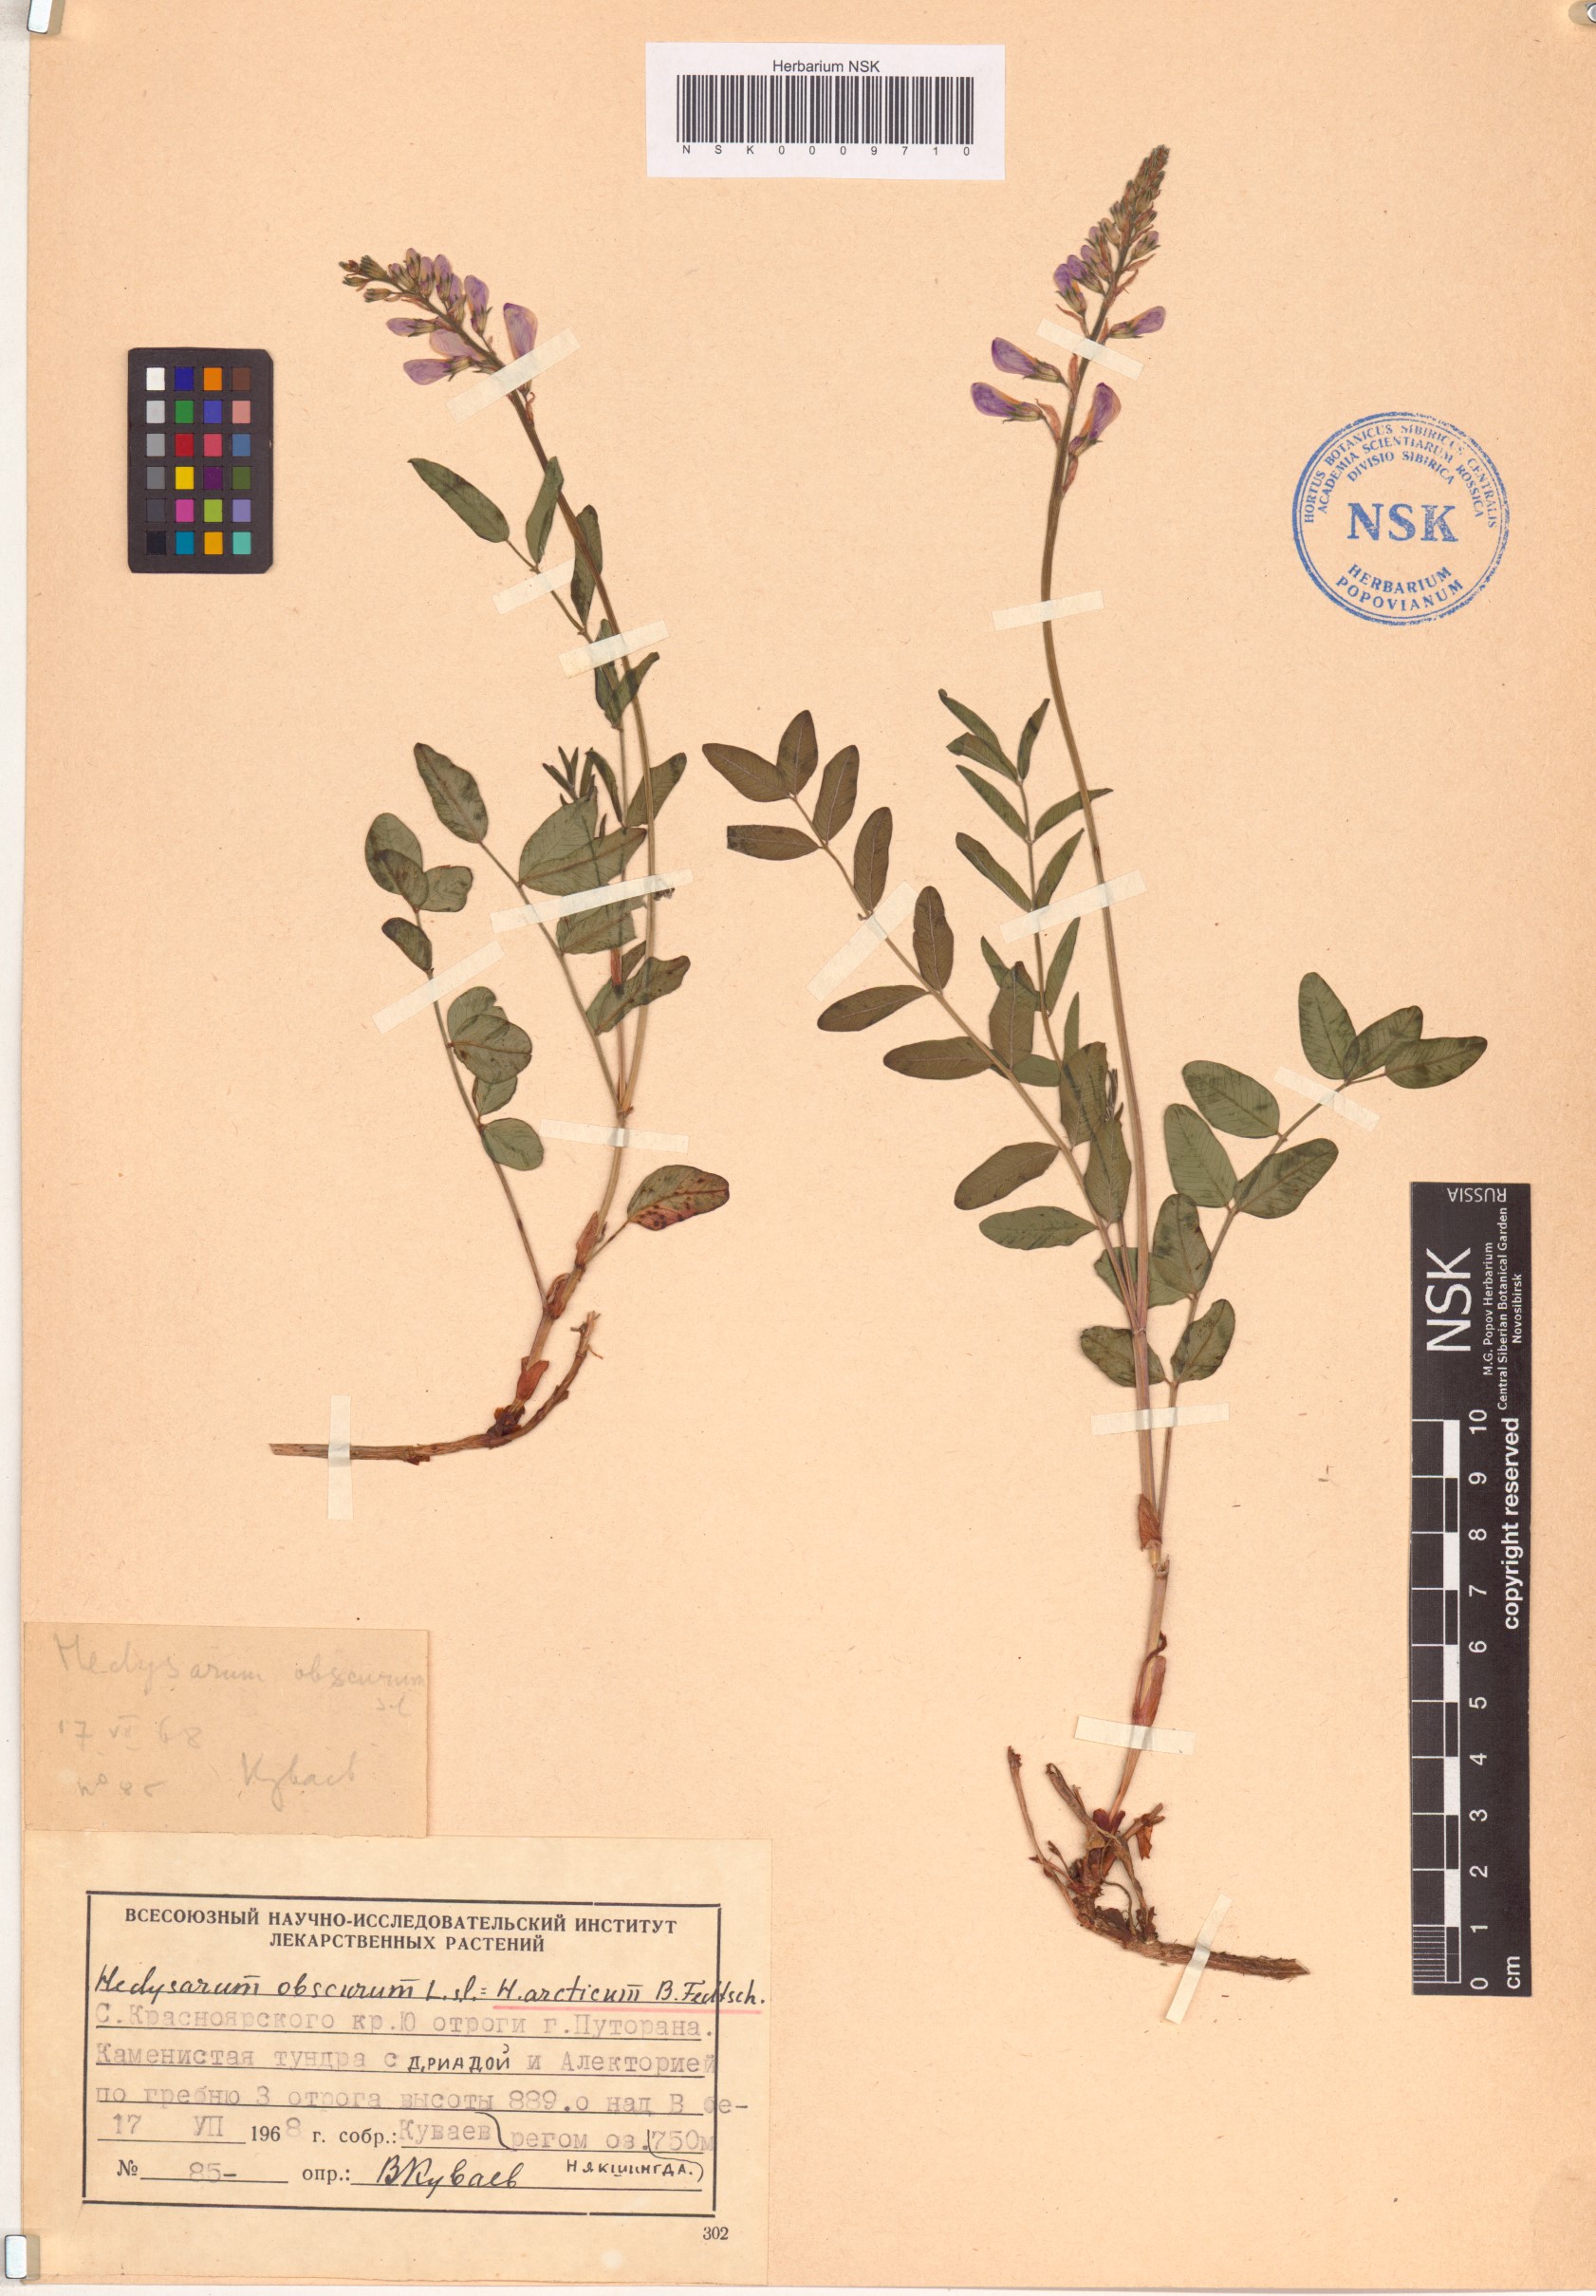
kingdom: Plantae
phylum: Tracheophyta
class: Magnoliopsida
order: Fabales
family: Fabaceae
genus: Hedysarum
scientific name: Hedysarum hedysaroides
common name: Alpine french-honeysuckle
